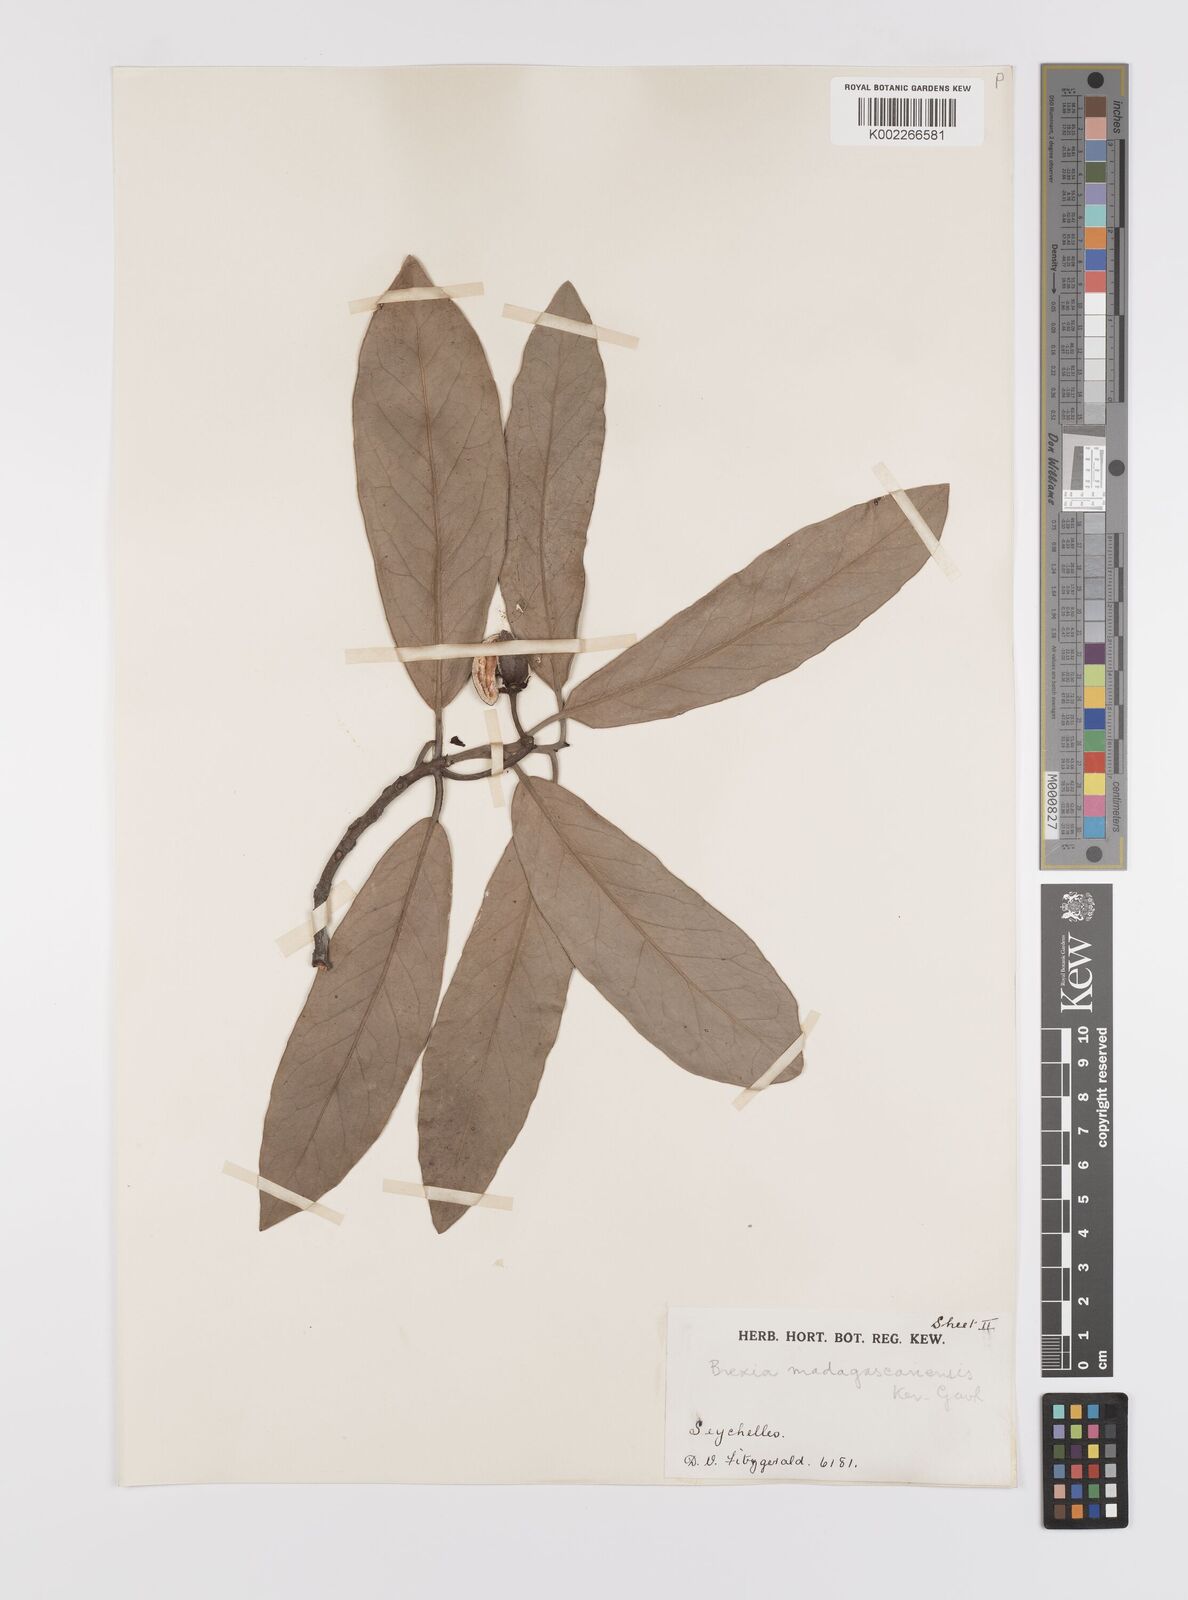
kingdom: Plantae
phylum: Tracheophyta
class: Magnoliopsida
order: Celastrales
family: Celastraceae
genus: Brexia
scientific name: Brexia madagascariensis
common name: Brexia
